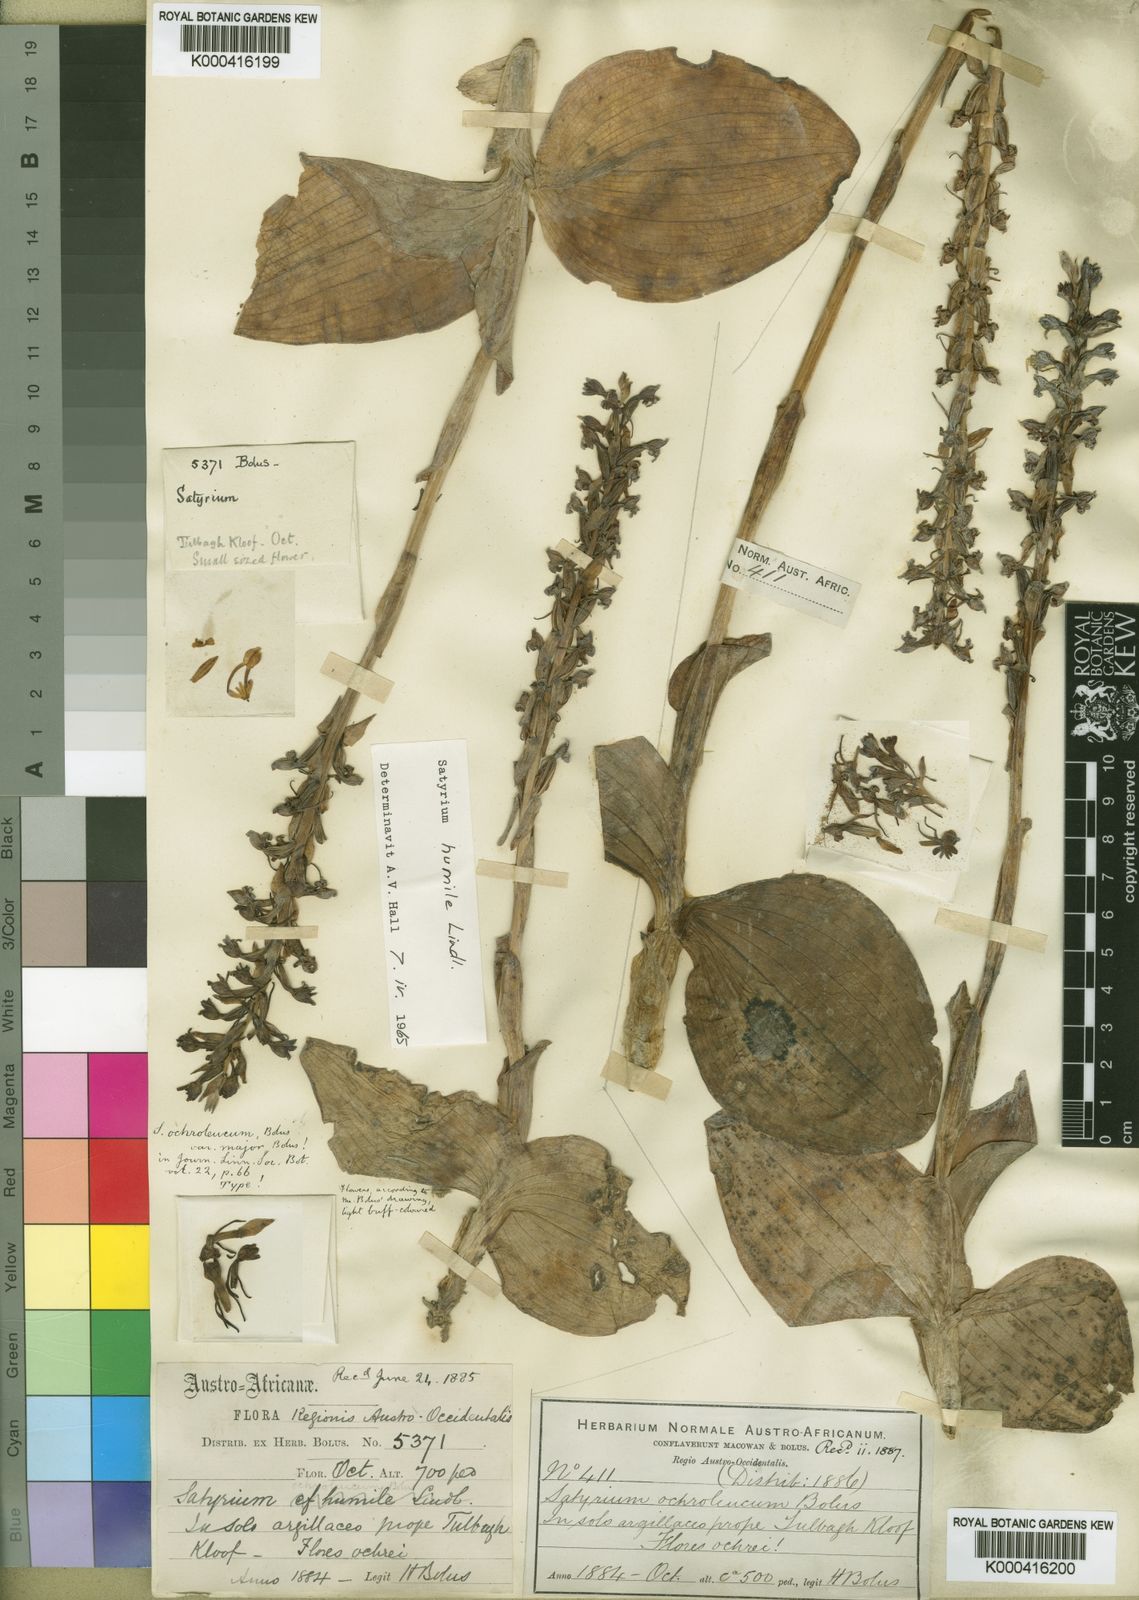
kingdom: Plantae
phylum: Tracheophyta
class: Liliopsida
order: Asparagales
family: Orchidaceae
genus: Satyrium
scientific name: Satyrium humile
